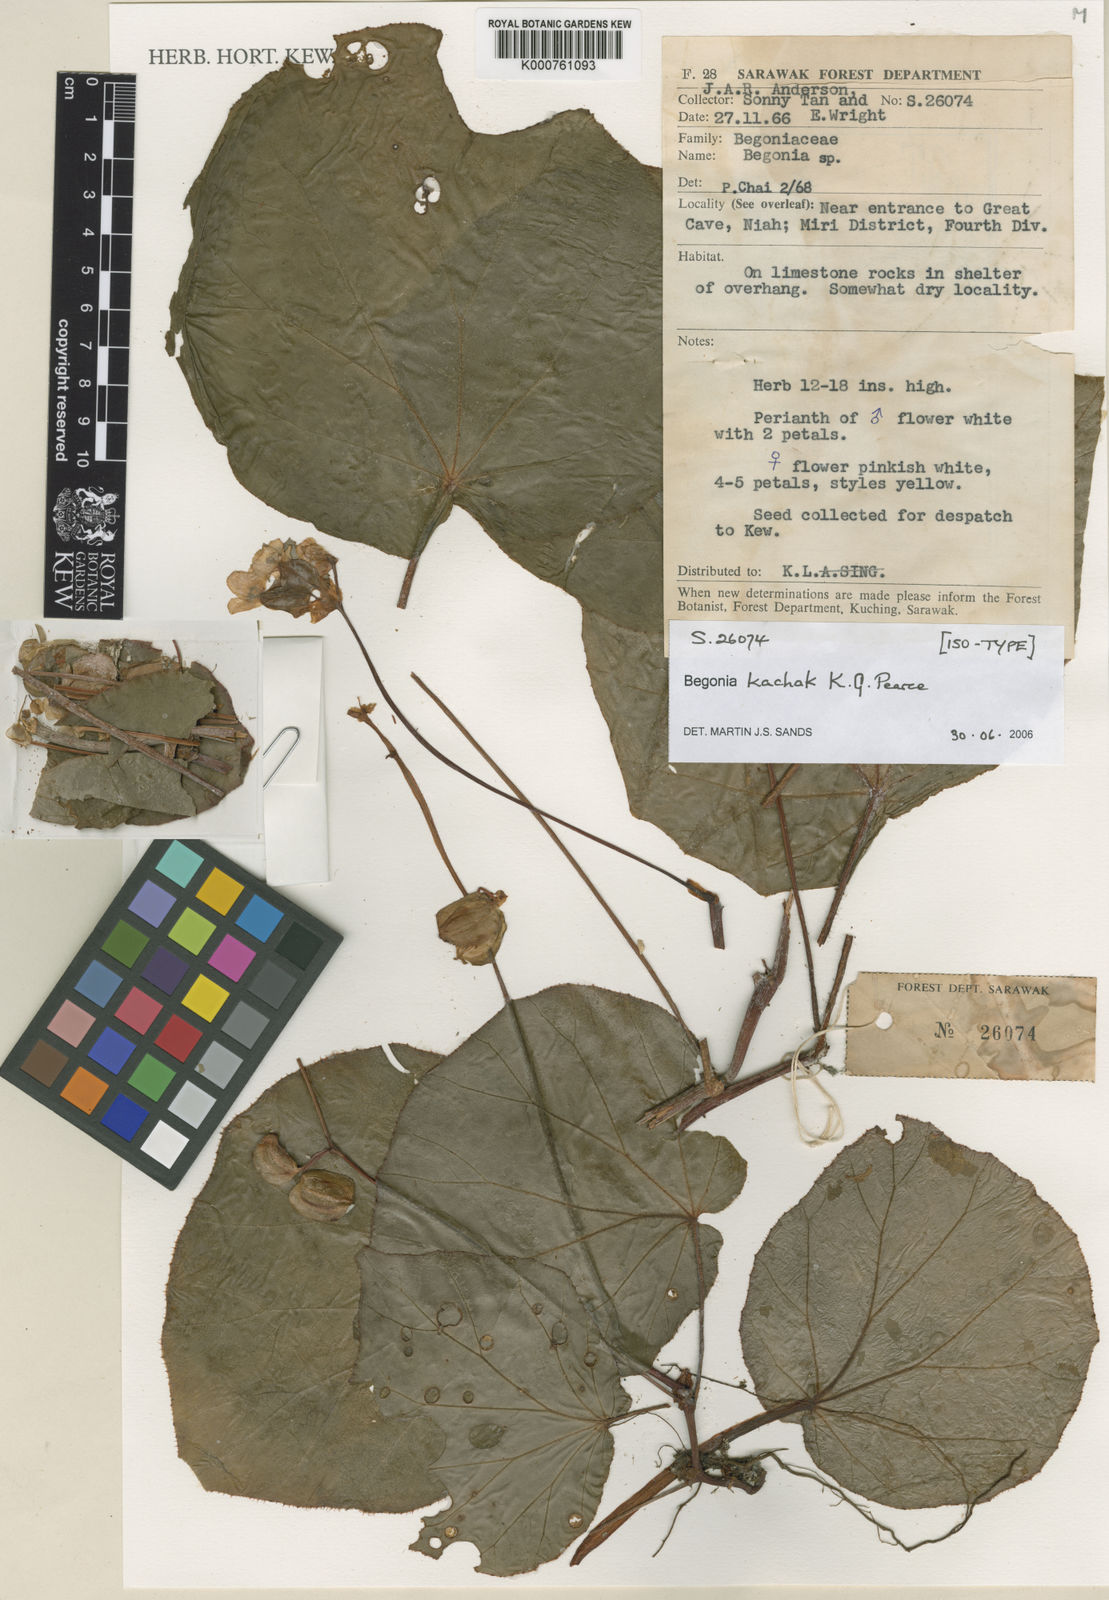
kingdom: Plantae
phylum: Tracheophyta
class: Magnoliopsida
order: Cucurbitales
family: Begoniaceae
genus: Begonia
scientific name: Begonia kachak
